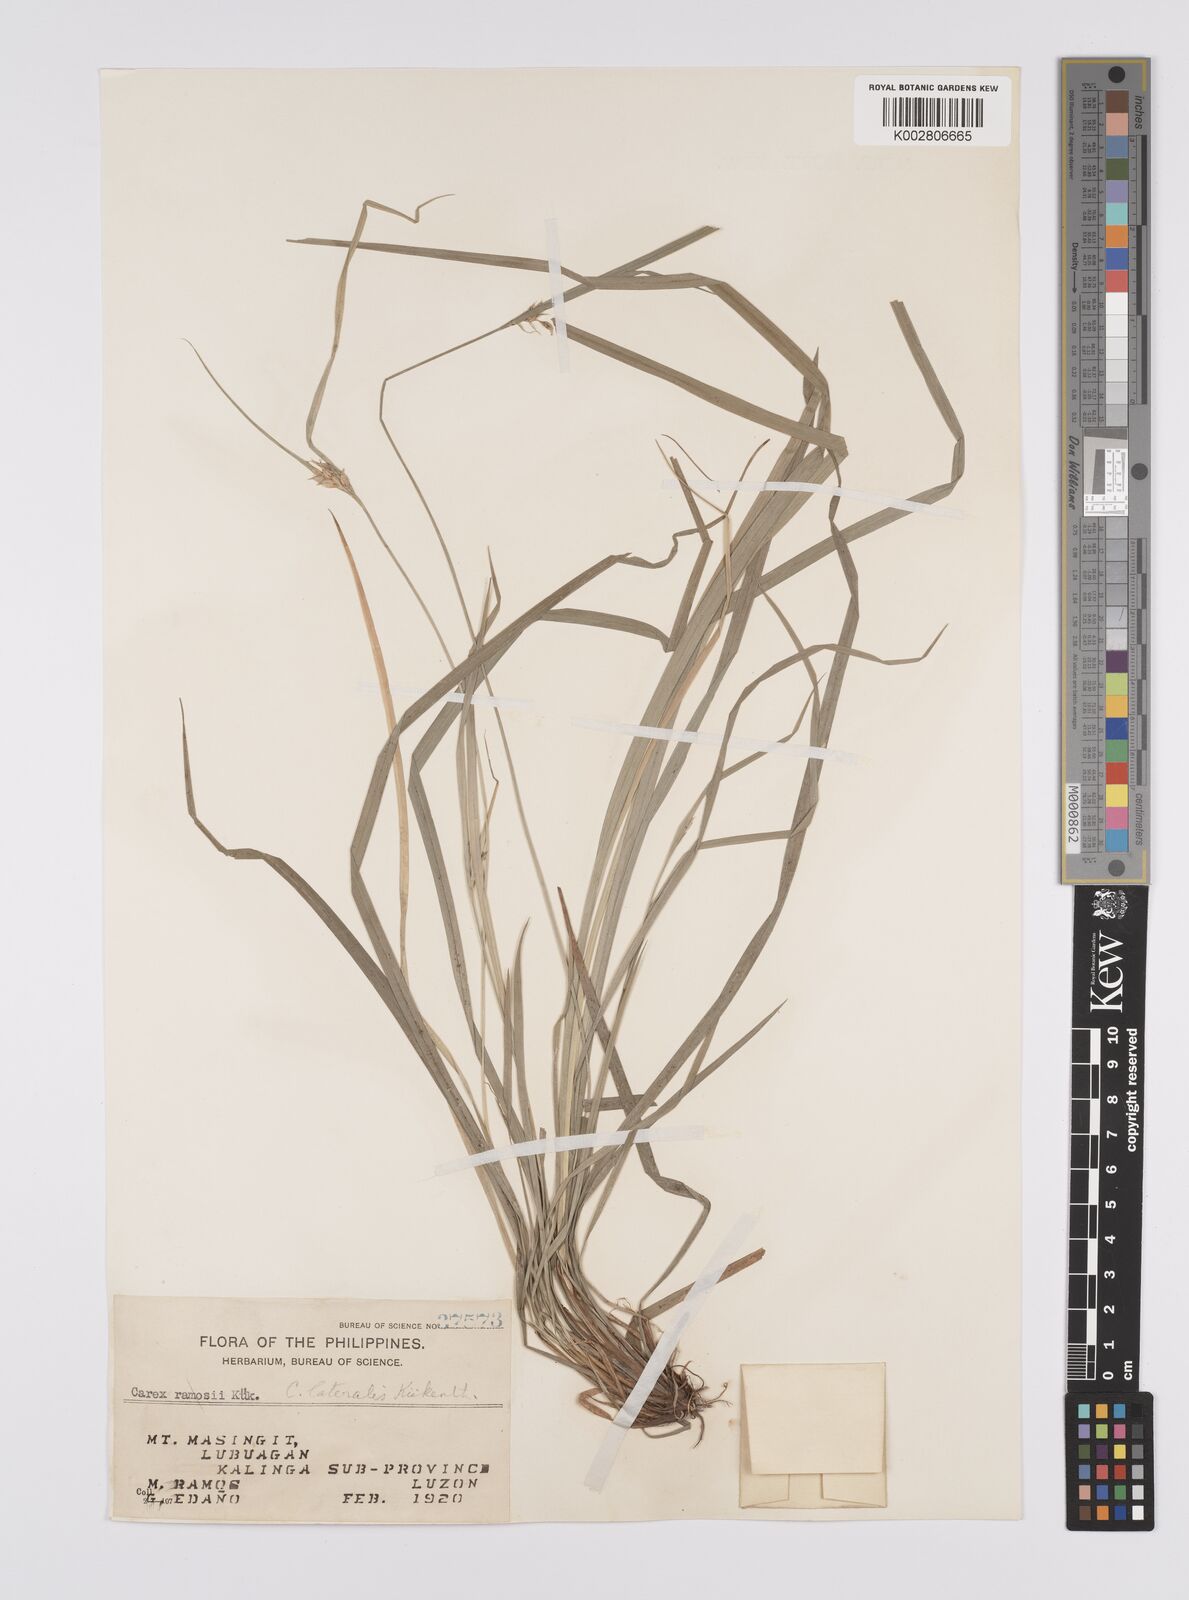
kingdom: Plantae
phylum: Tracheophyta
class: Liliopsida
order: Poales
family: Cyperaceae
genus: Carex
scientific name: Carex oxyphylla
